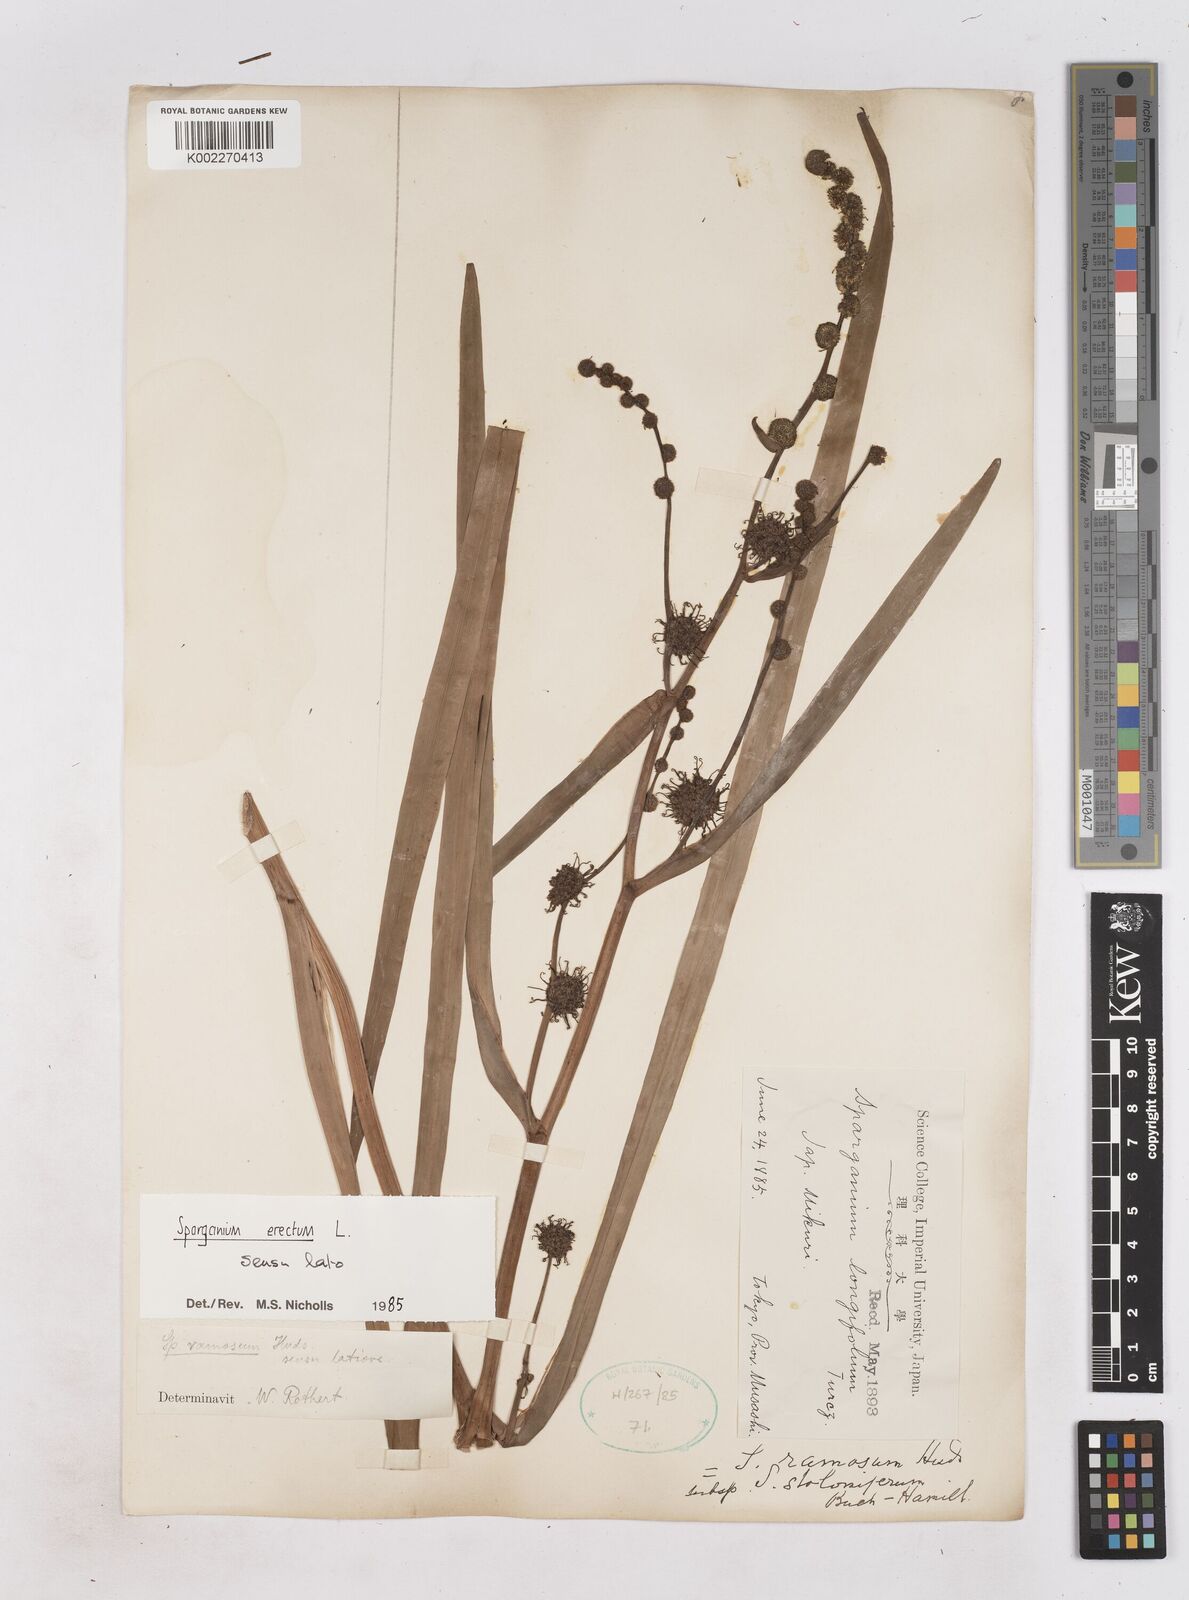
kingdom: Plantae
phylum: Tracheophyta
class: Liliopsida
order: Poales
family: Typhaceae
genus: Sparganium
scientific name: Sparganium
